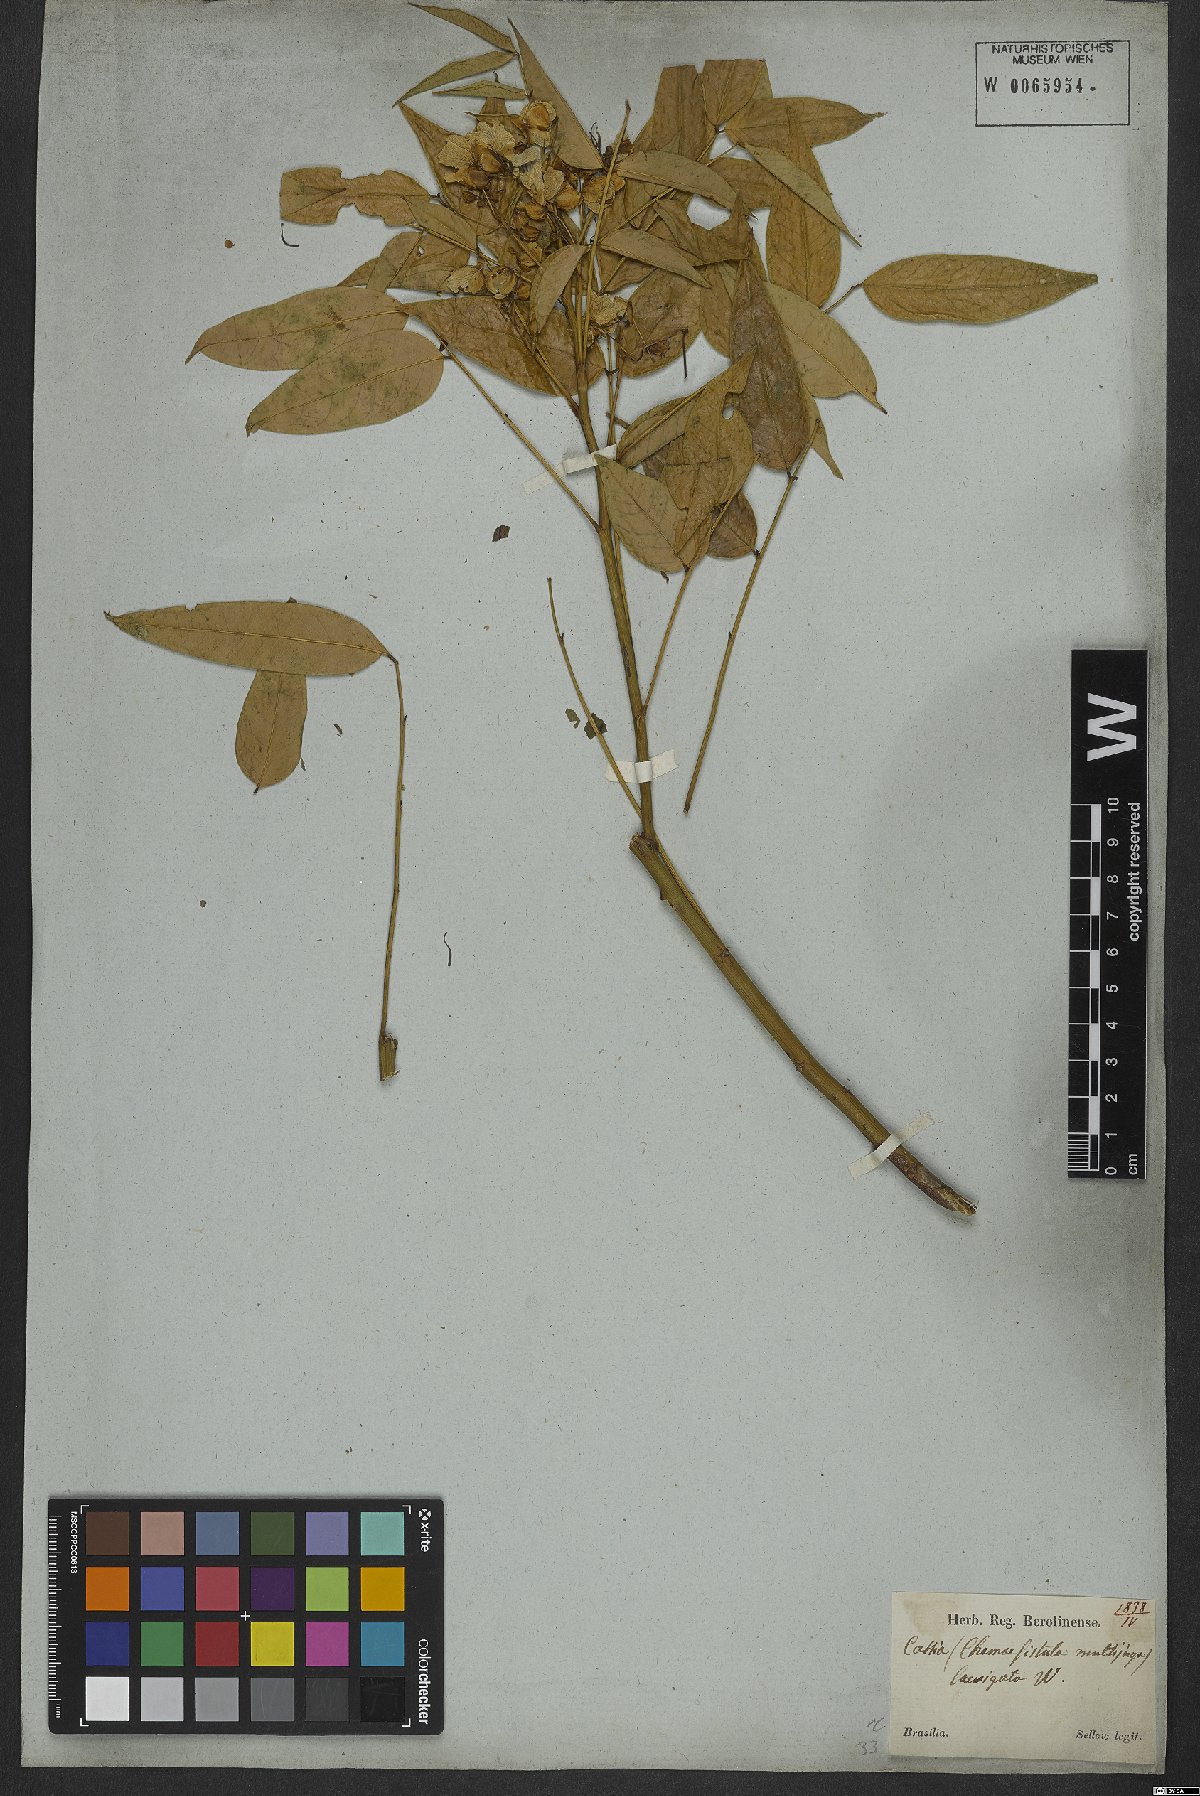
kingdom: Plantae
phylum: Tracheophyta
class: Magnoliopsida
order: Fabales
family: Fabaceae
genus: Senna
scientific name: Senna septemtrionalis
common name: Arsenic bush
